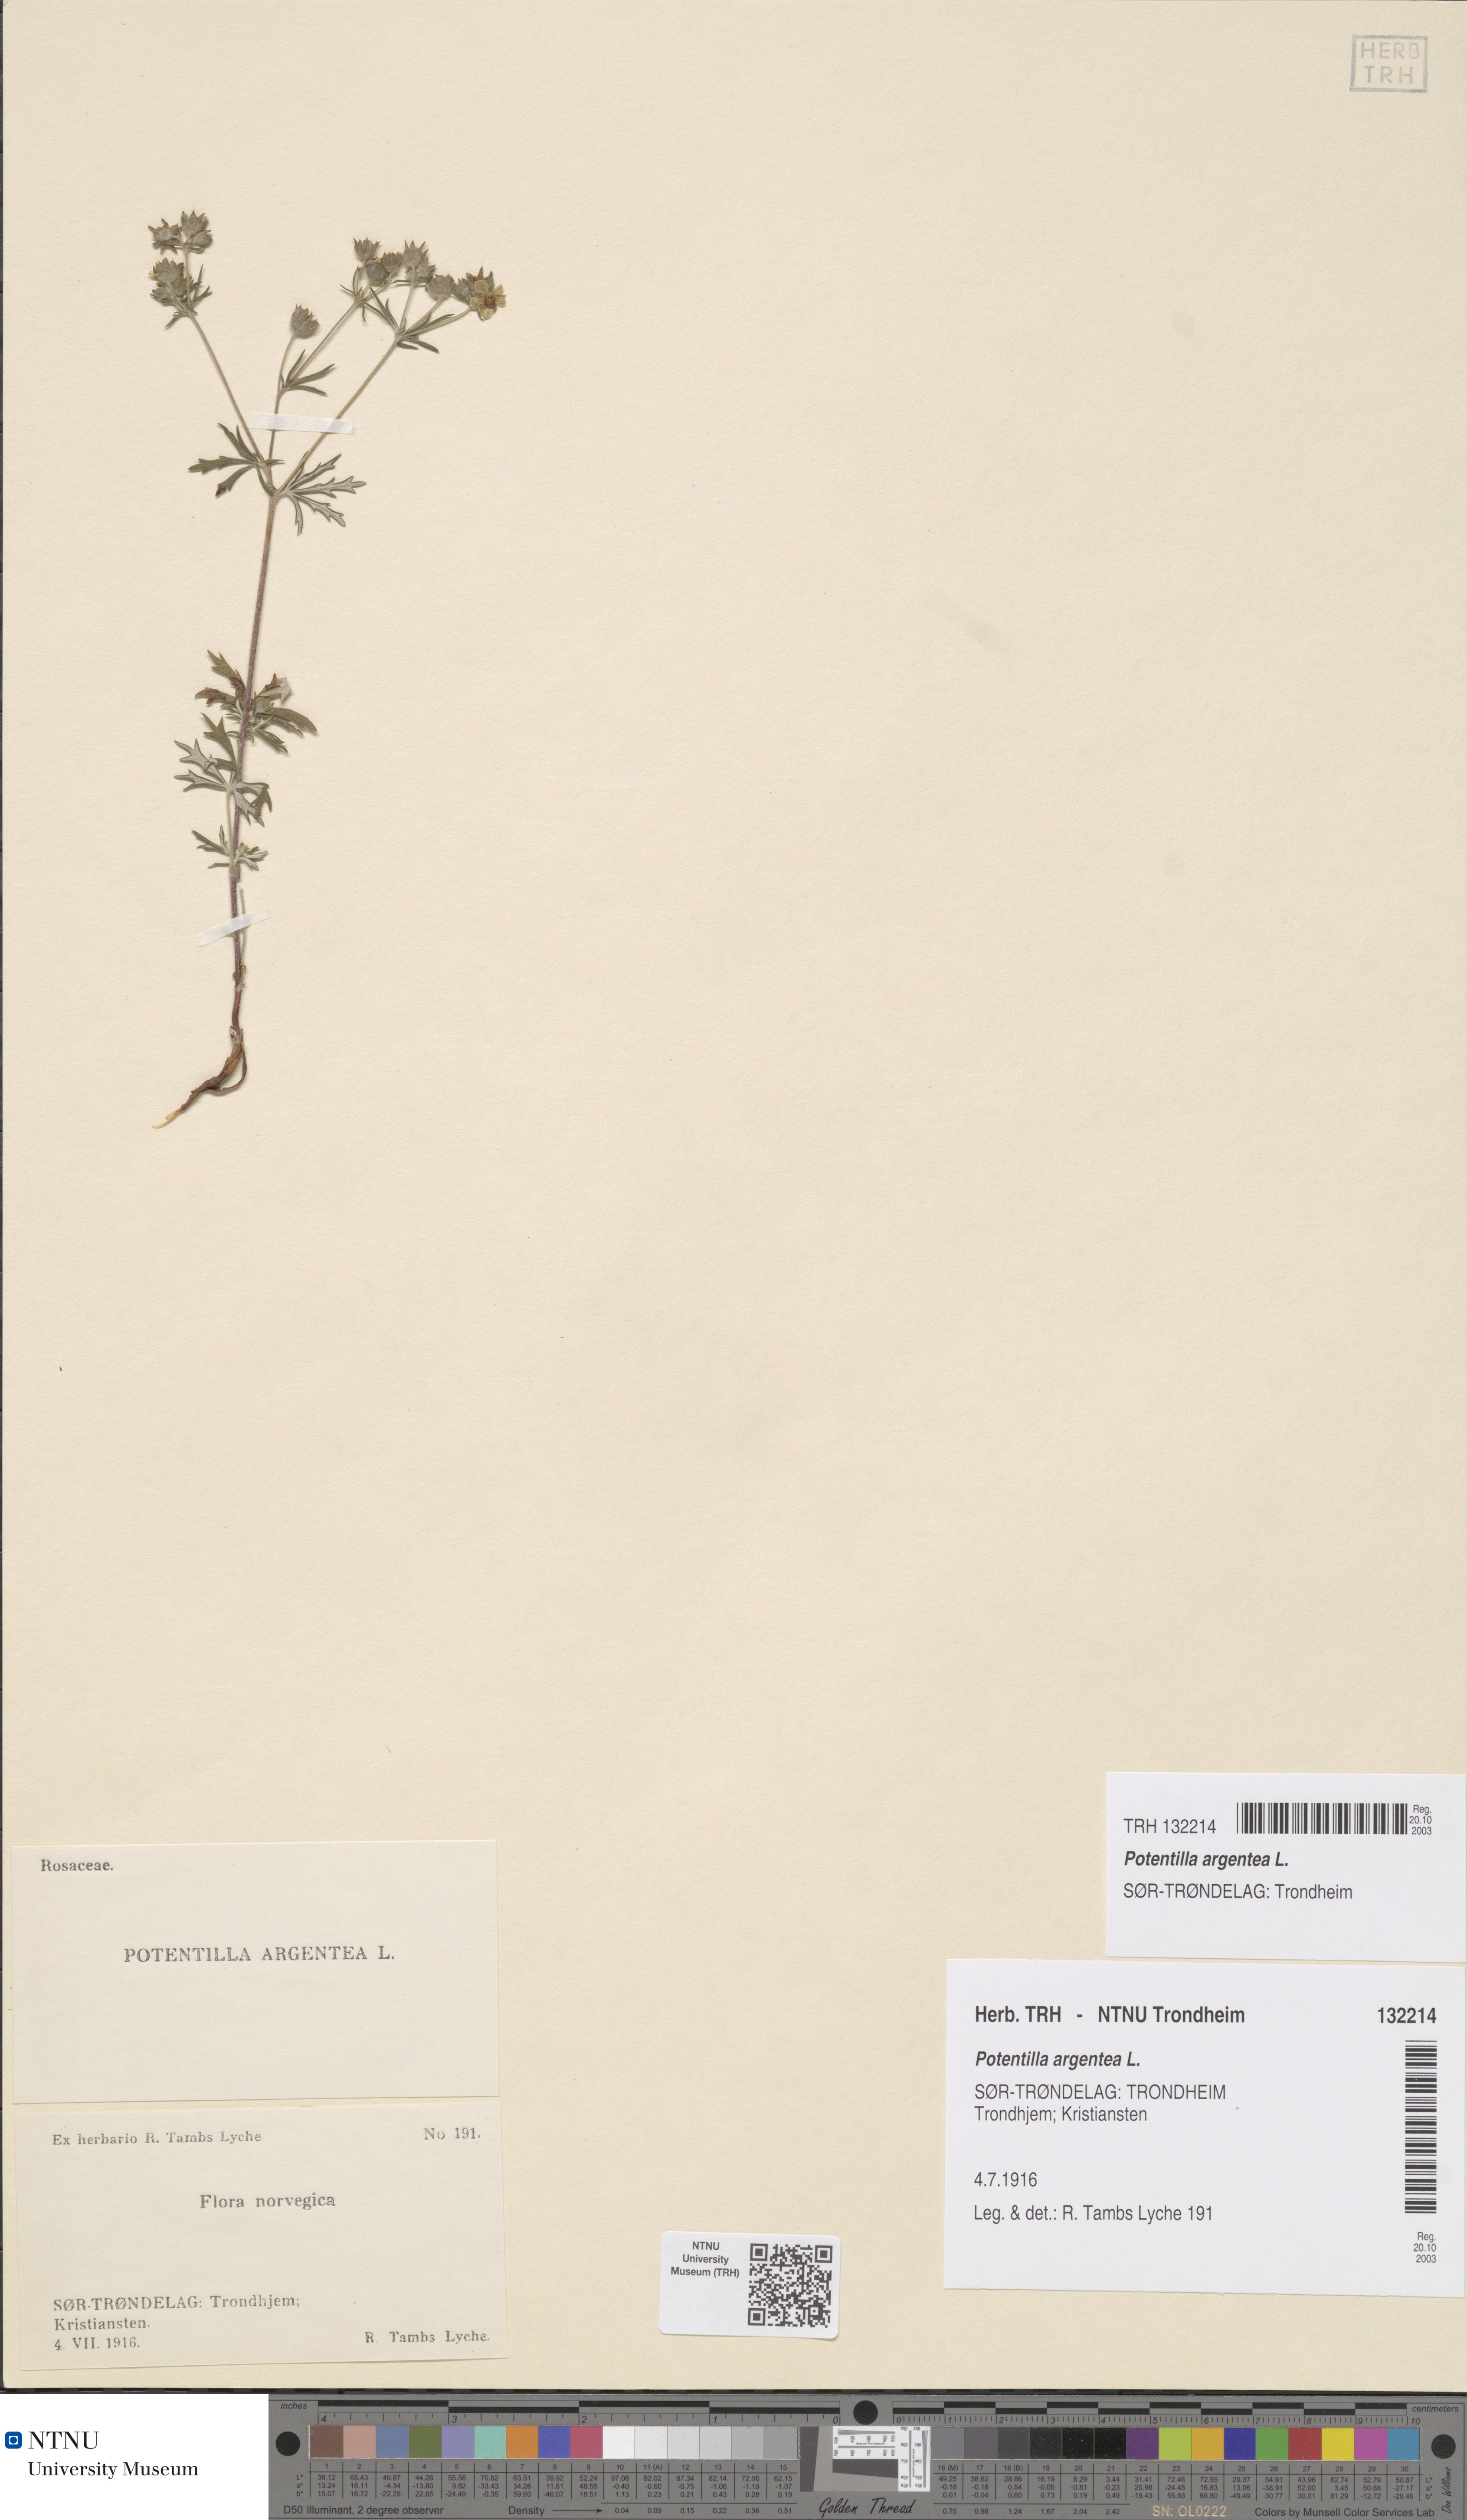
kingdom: Plantae
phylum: Tracheophyta
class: Magnoliopsida
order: Rosales
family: Rosaceae
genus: Potentilla
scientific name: Potentilla argentea
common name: Hoary cinquefoil
